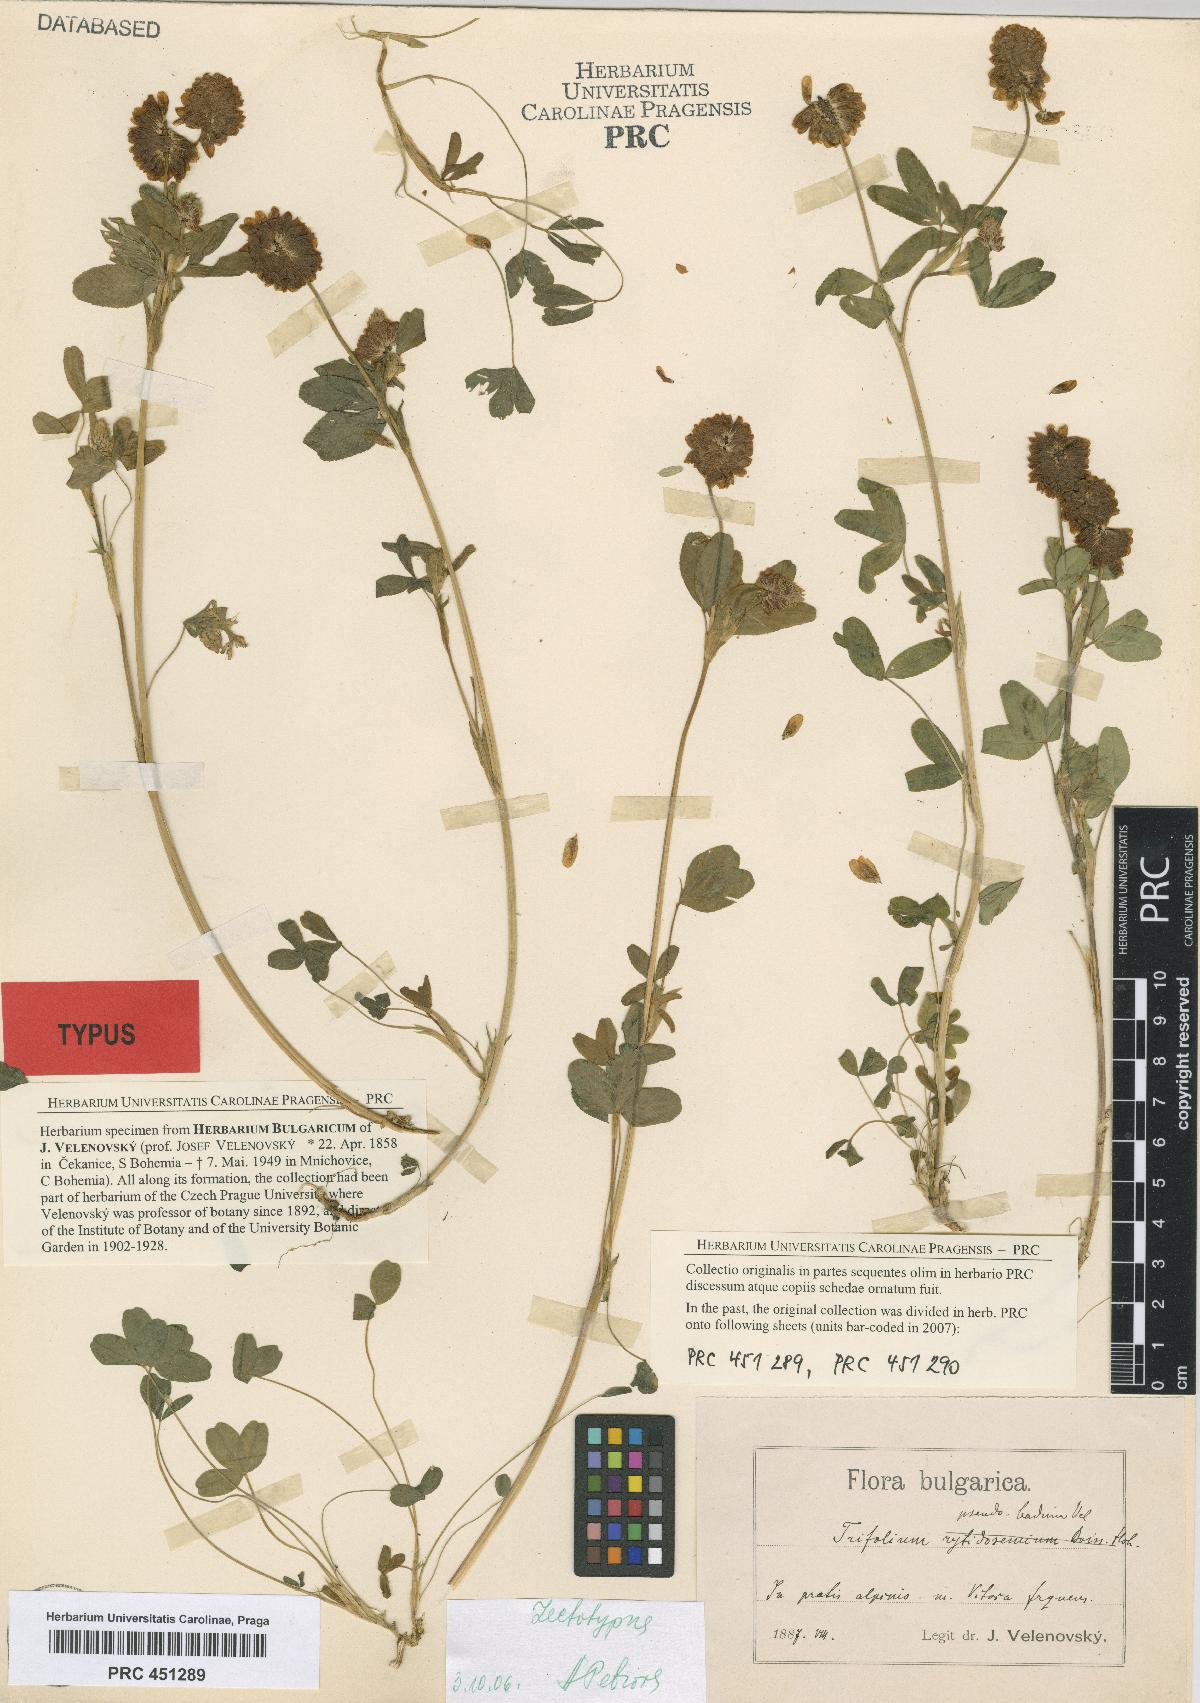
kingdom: Plantae
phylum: Tracheophyta
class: Magnoliopsida
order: Fabales
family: Fabaceae
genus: Trifolium
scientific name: Trifolium badium
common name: Brown clover
